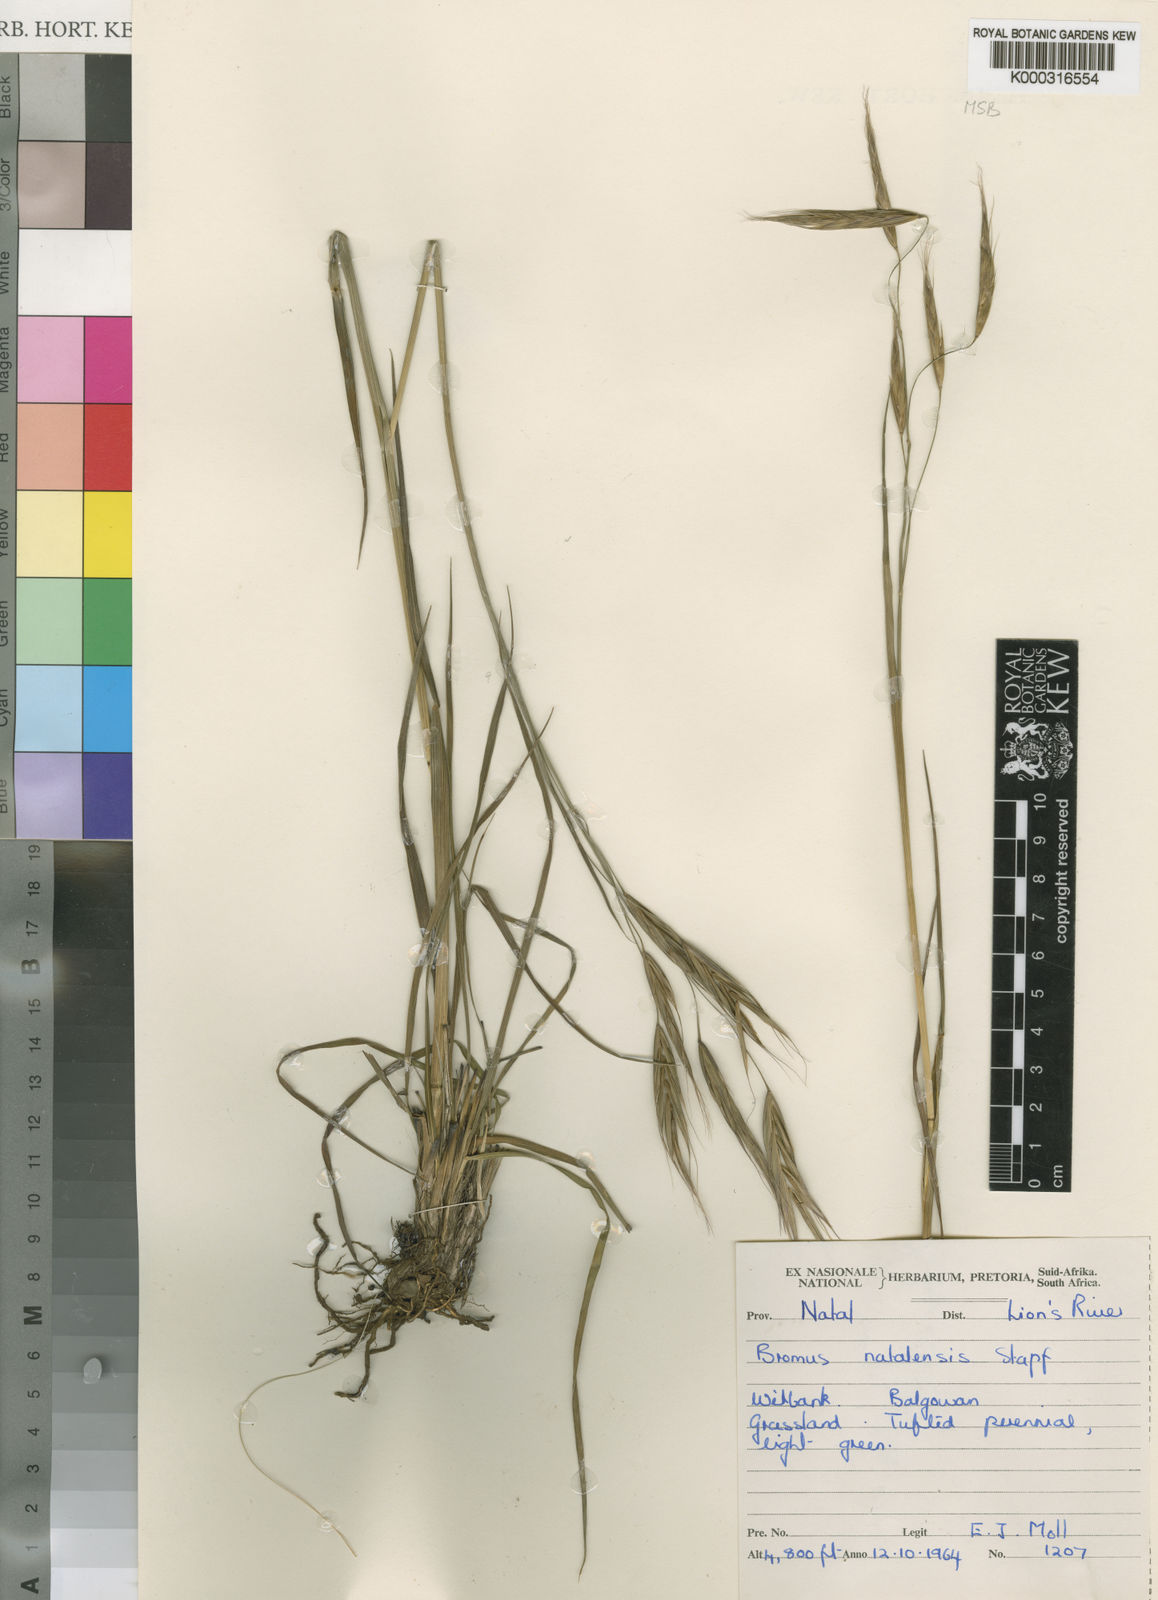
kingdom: Plantae
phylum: Tracheophyta
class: Liliopsida
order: Poales
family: Poaceae
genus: Bromus
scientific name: Bromus natalensis
